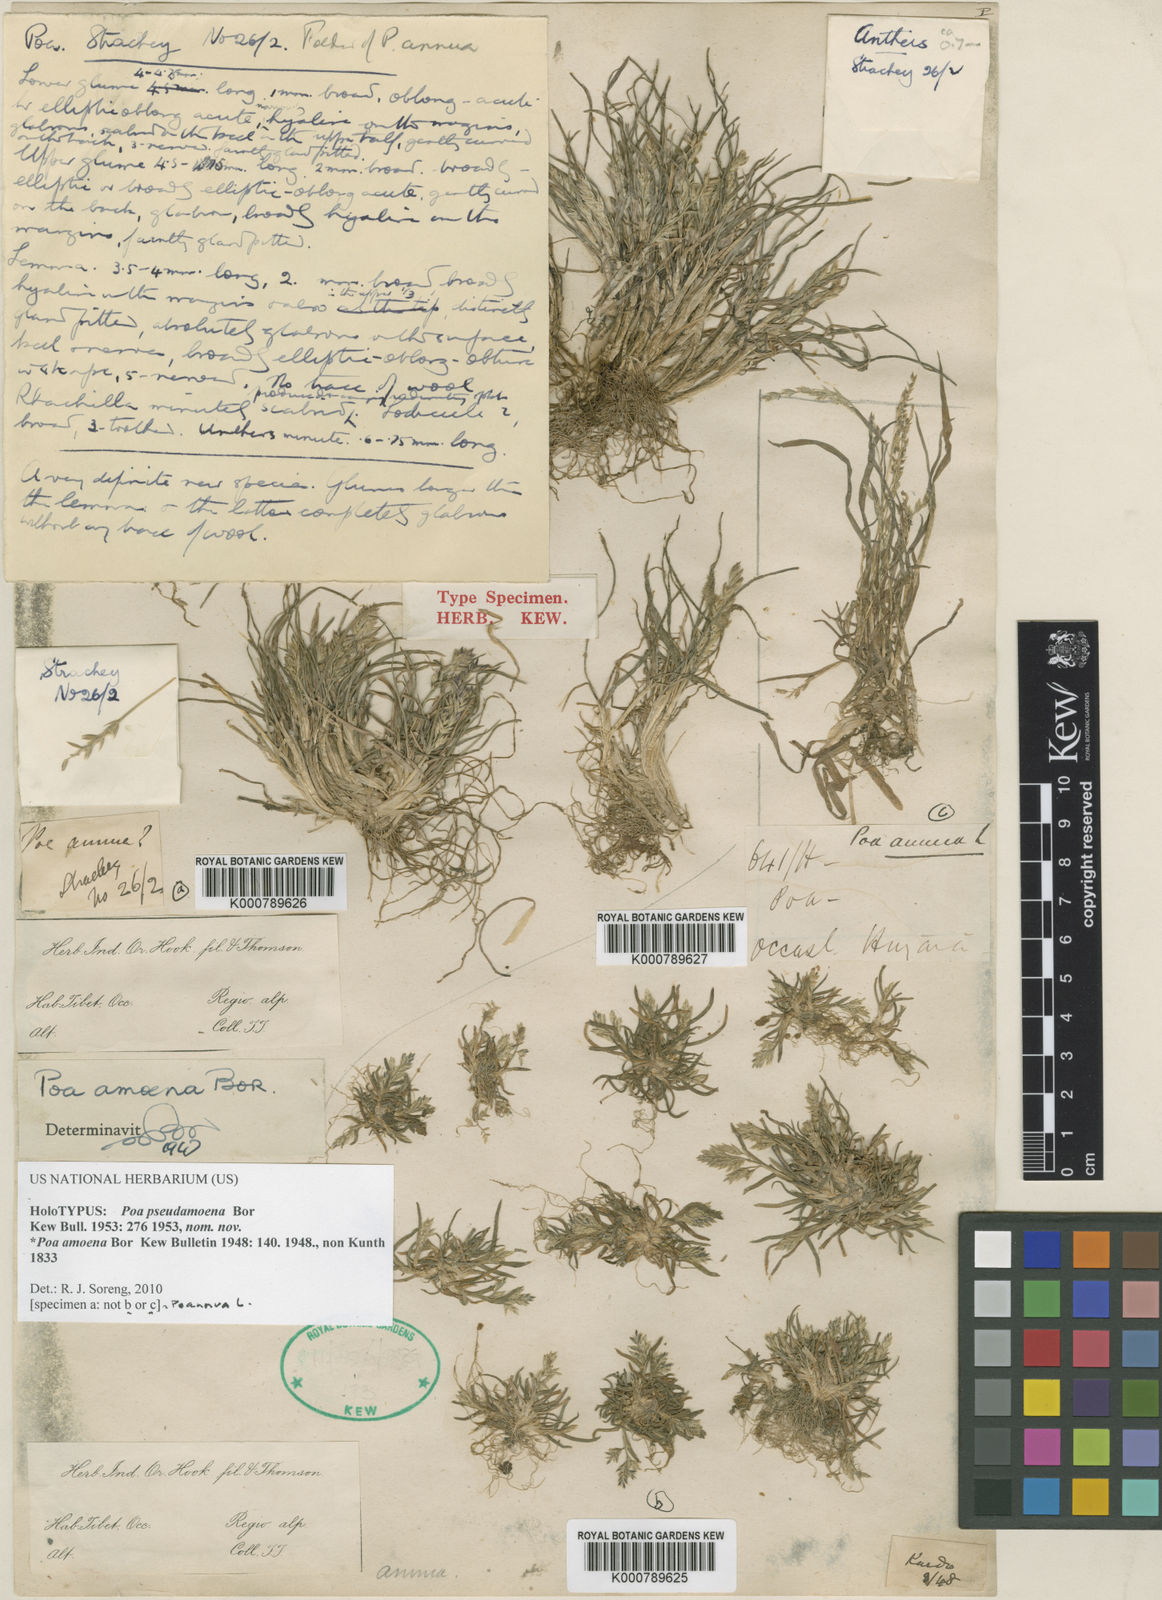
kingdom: Plantae
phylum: Tracheophyta
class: Liliopsida
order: Poales
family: Poaceae
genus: Poa
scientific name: Poa pseudamoena
